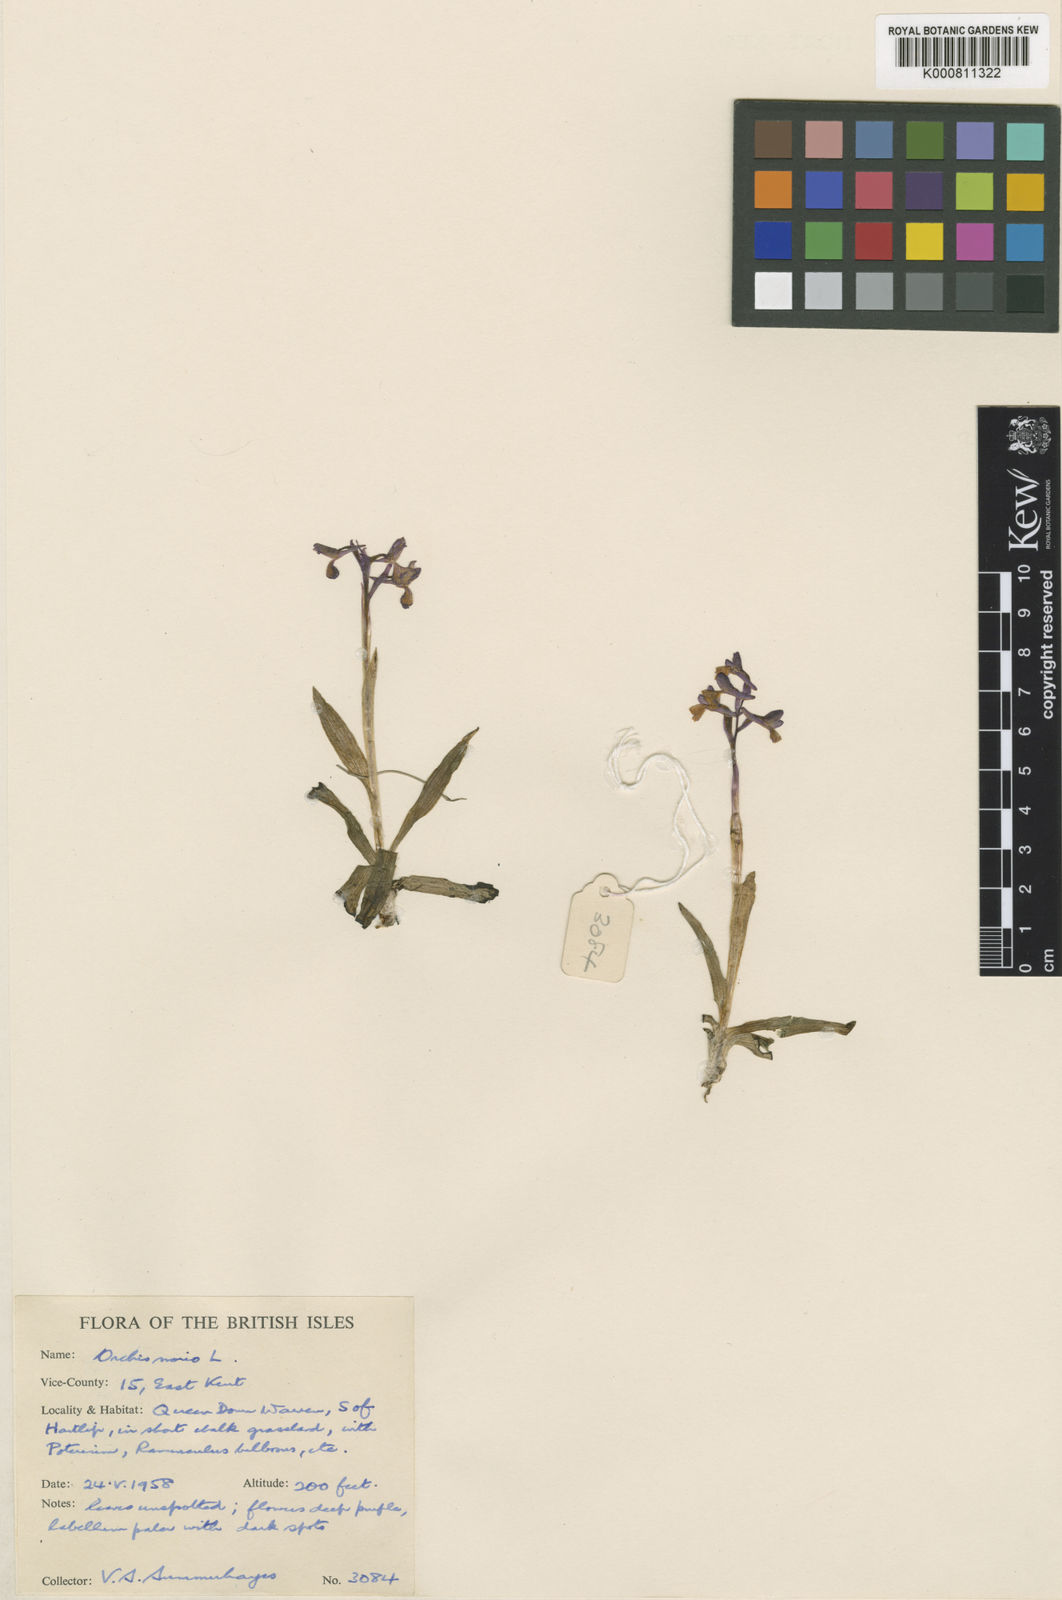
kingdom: Plantae
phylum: Tracheophyta
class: Liliopsida
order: Asparagales
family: Orchidaceae
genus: Anacamptis
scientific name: Anacamptis morio
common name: Green-winged orchid
